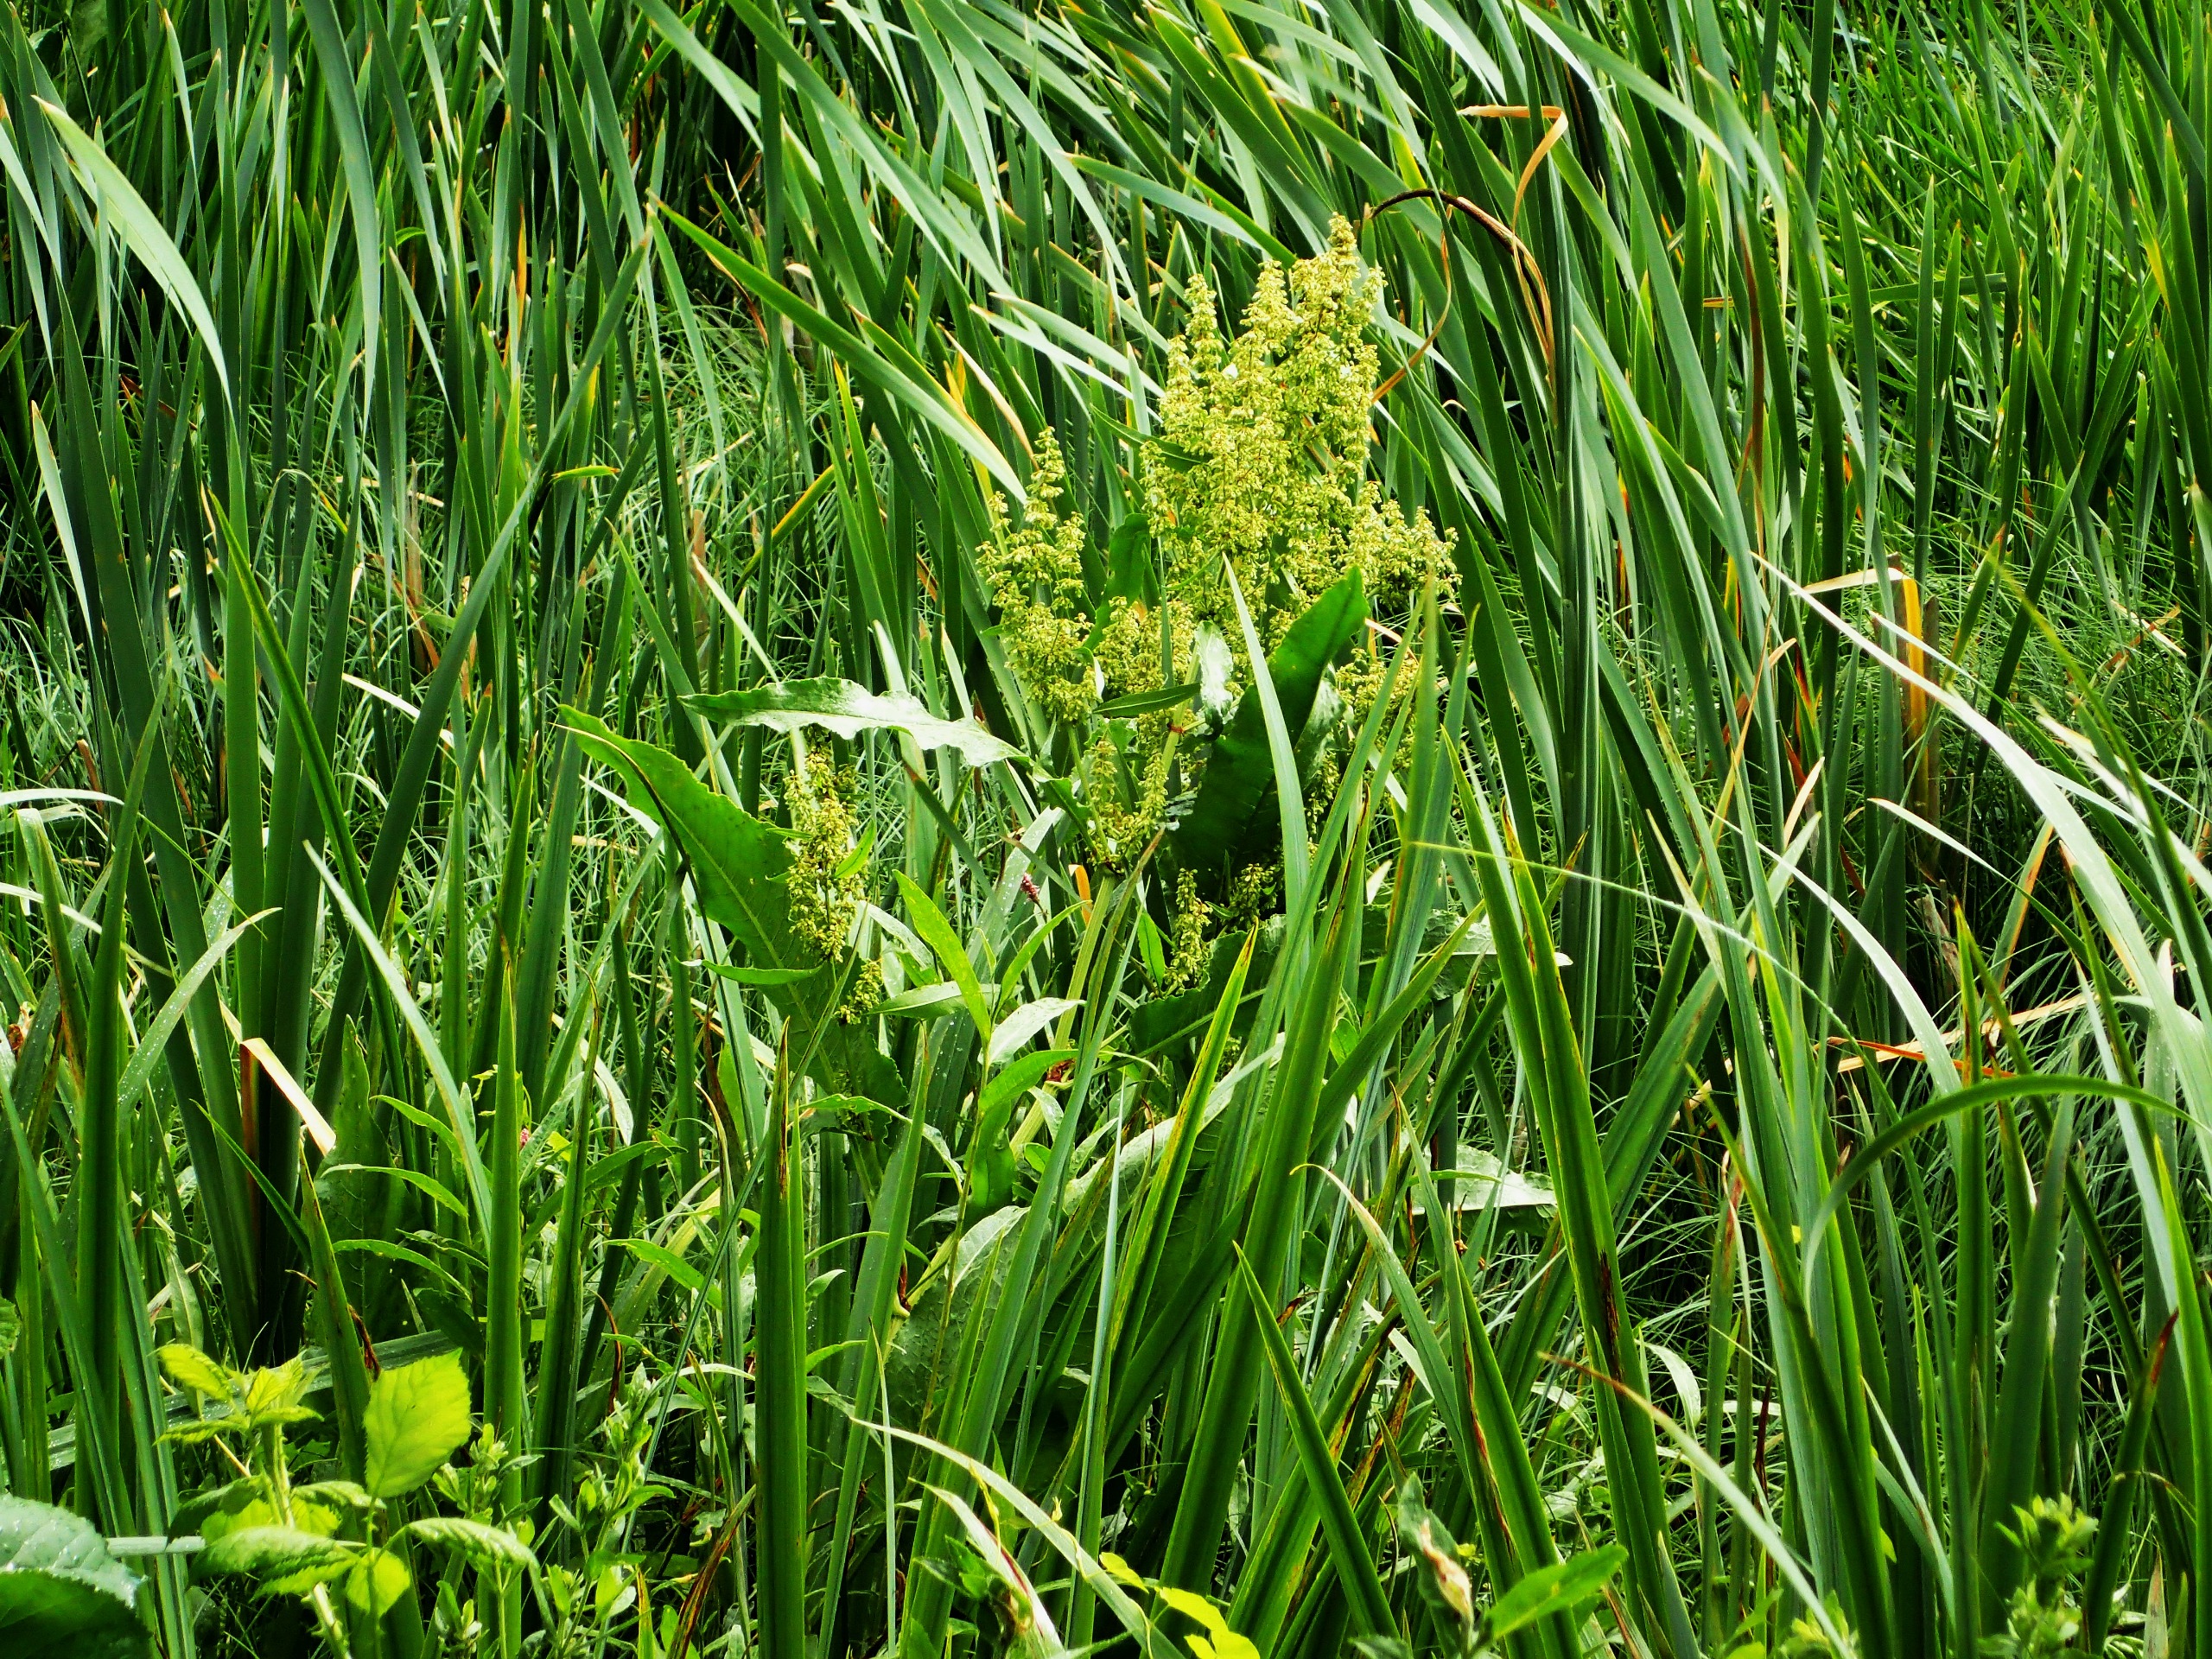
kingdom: Plantae
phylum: Tracheophyta
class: Magnoliopsida
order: Caryophyllales
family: Polygonaceae
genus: Rumex
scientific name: Rumex hydrolapathum
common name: Vand-skræppe
